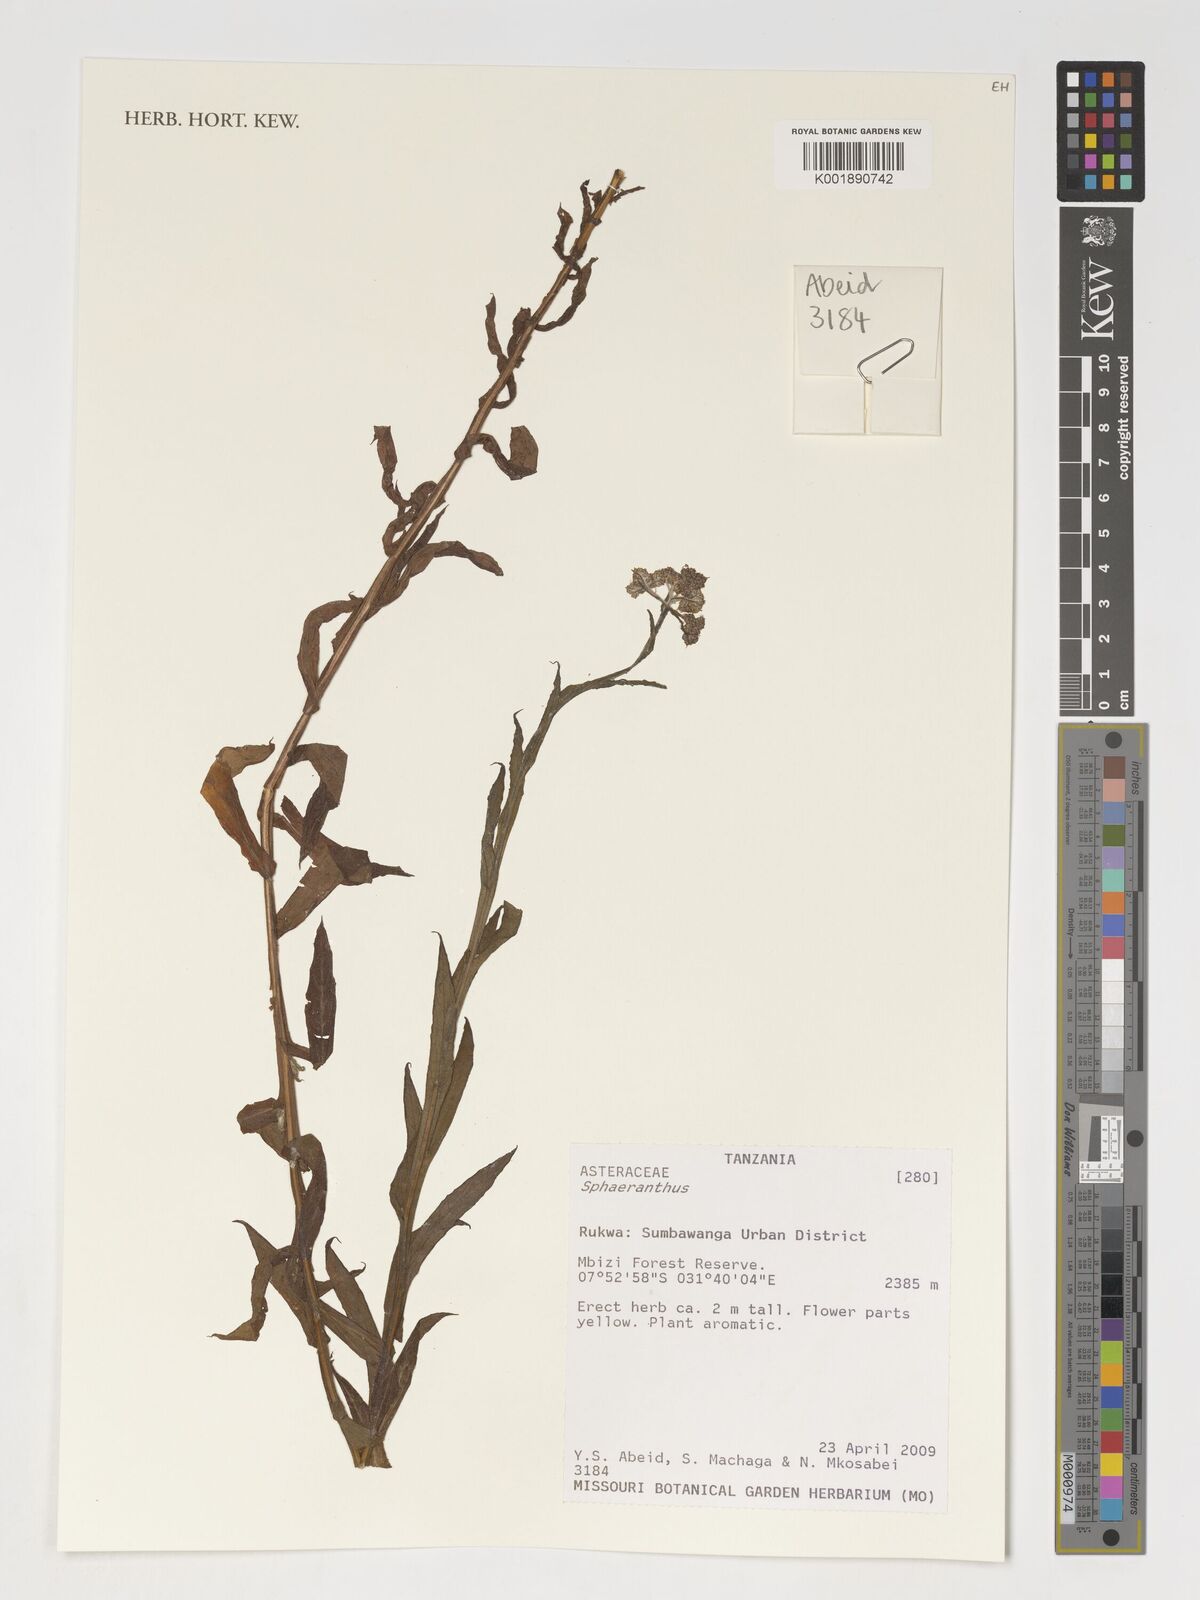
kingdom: Plantae
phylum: Tracheophyta
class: Magnoliopsida
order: Asterales
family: Asteraceae
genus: Sphaeranthus
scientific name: Sphaeranthus
